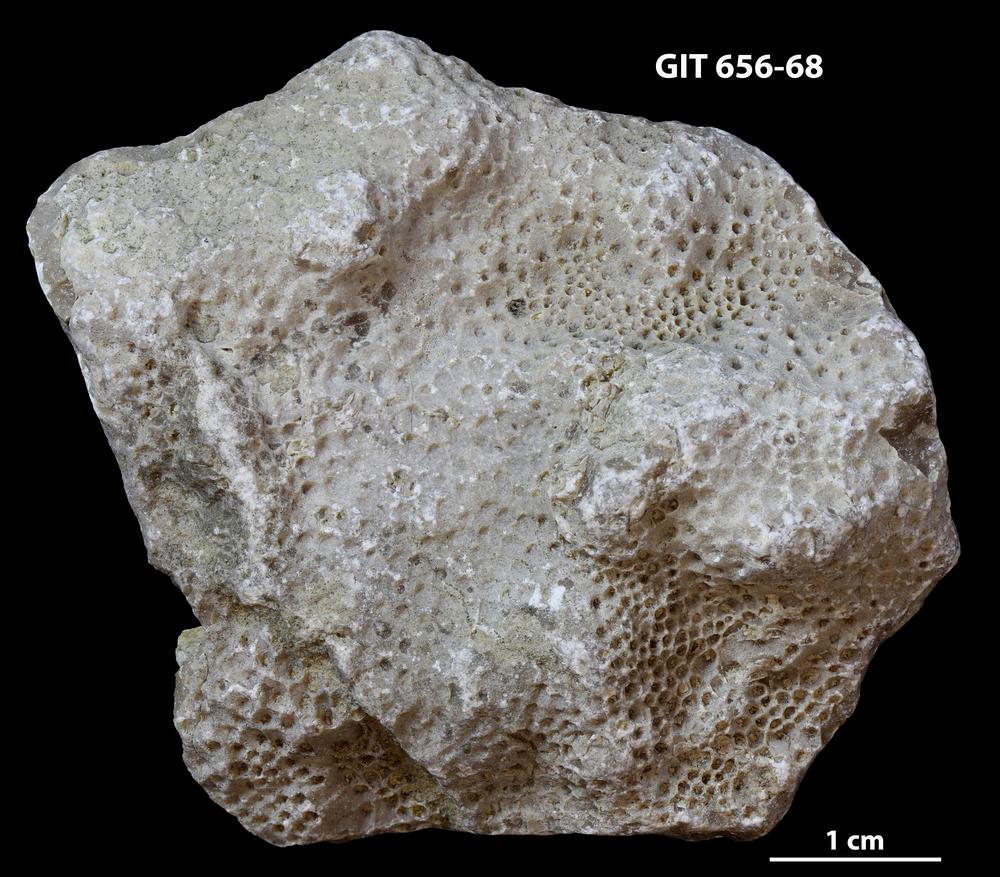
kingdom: Animalia
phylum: Cnidaria
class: Anthozoa
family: Favositidae
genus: Favosites
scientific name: Favosites
